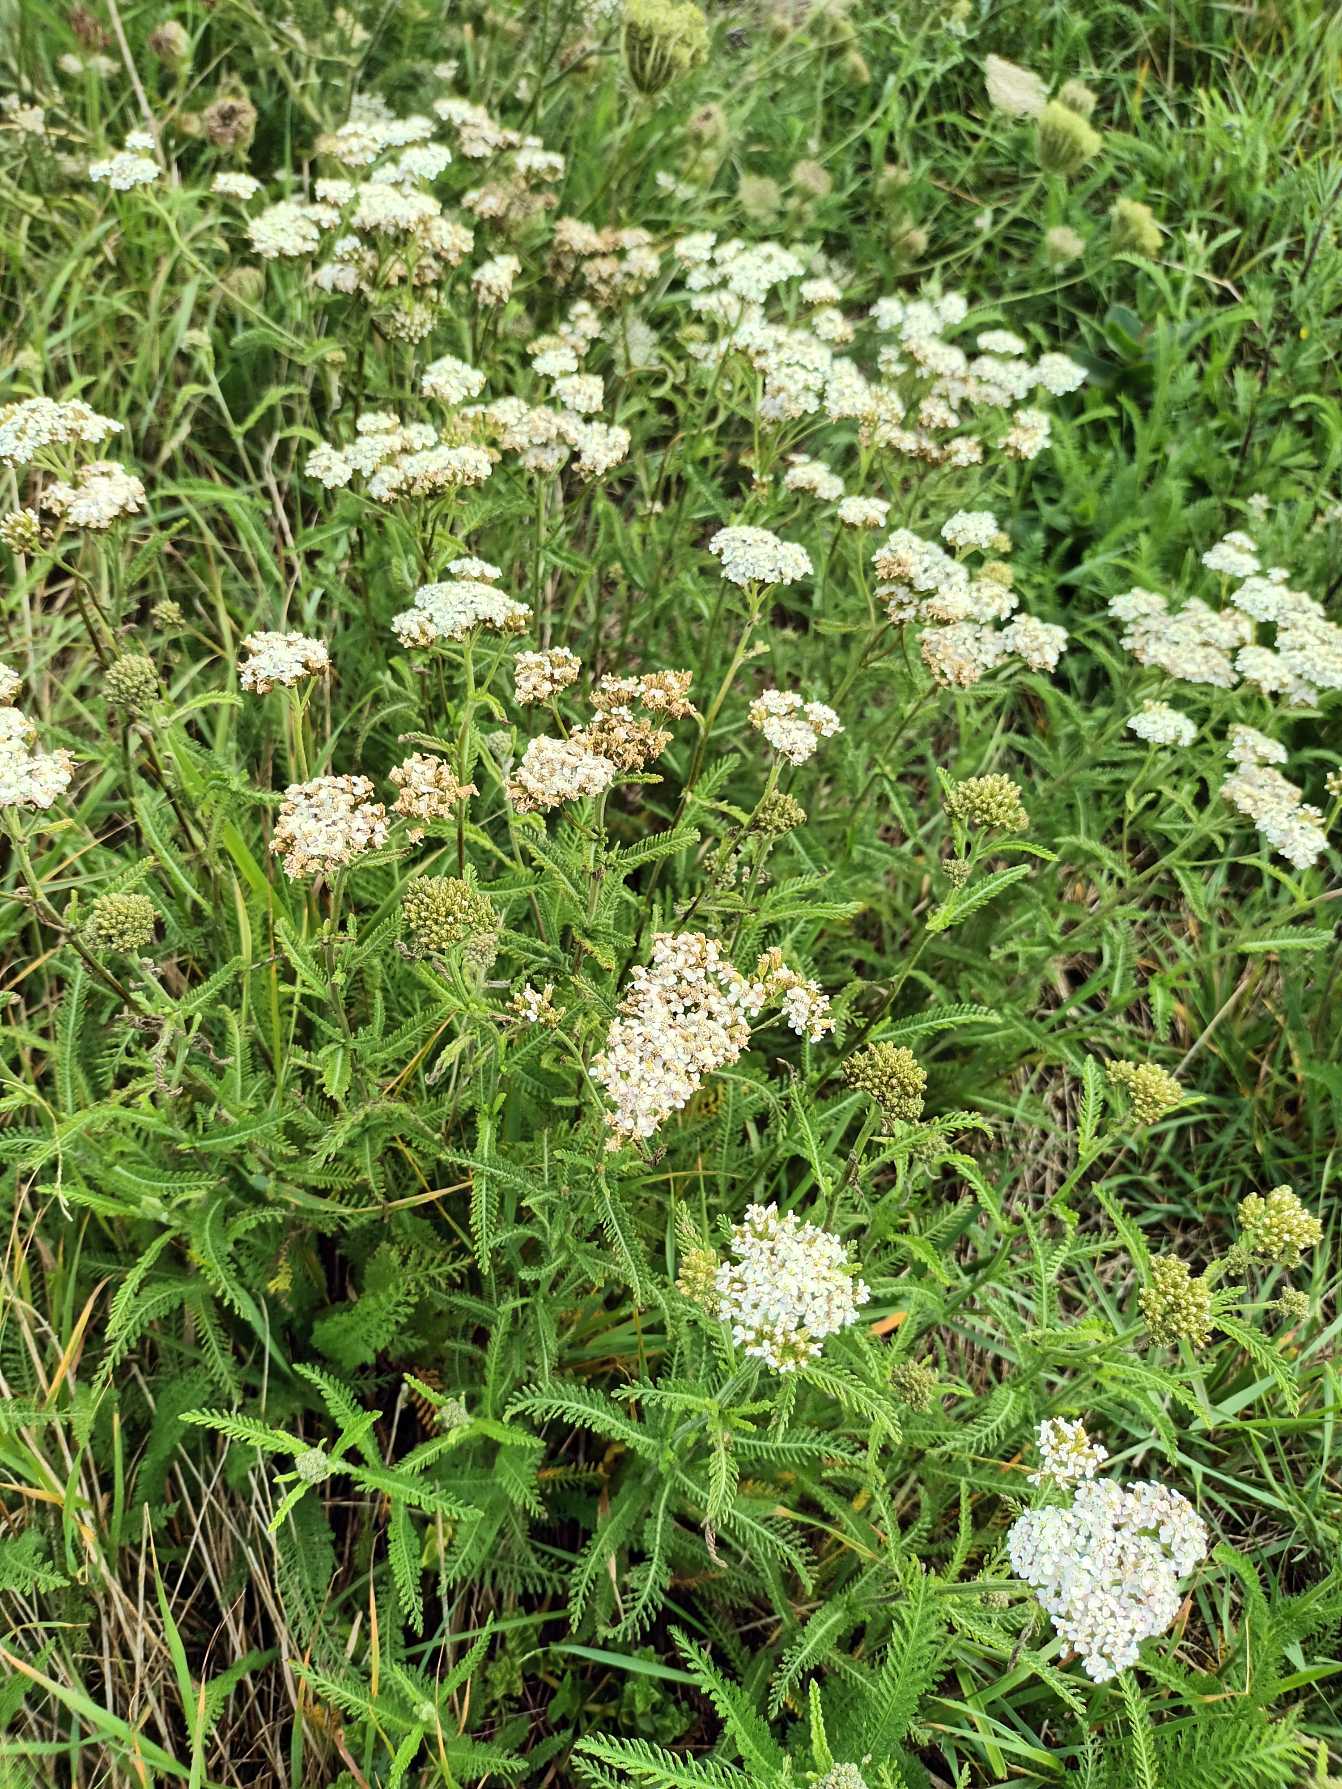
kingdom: Plantae
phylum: Tracheophyta
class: Magnoliopsida
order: Asterales
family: Asteraceae
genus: Achillea
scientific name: Achillea millefolium
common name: Almindelig røllike
